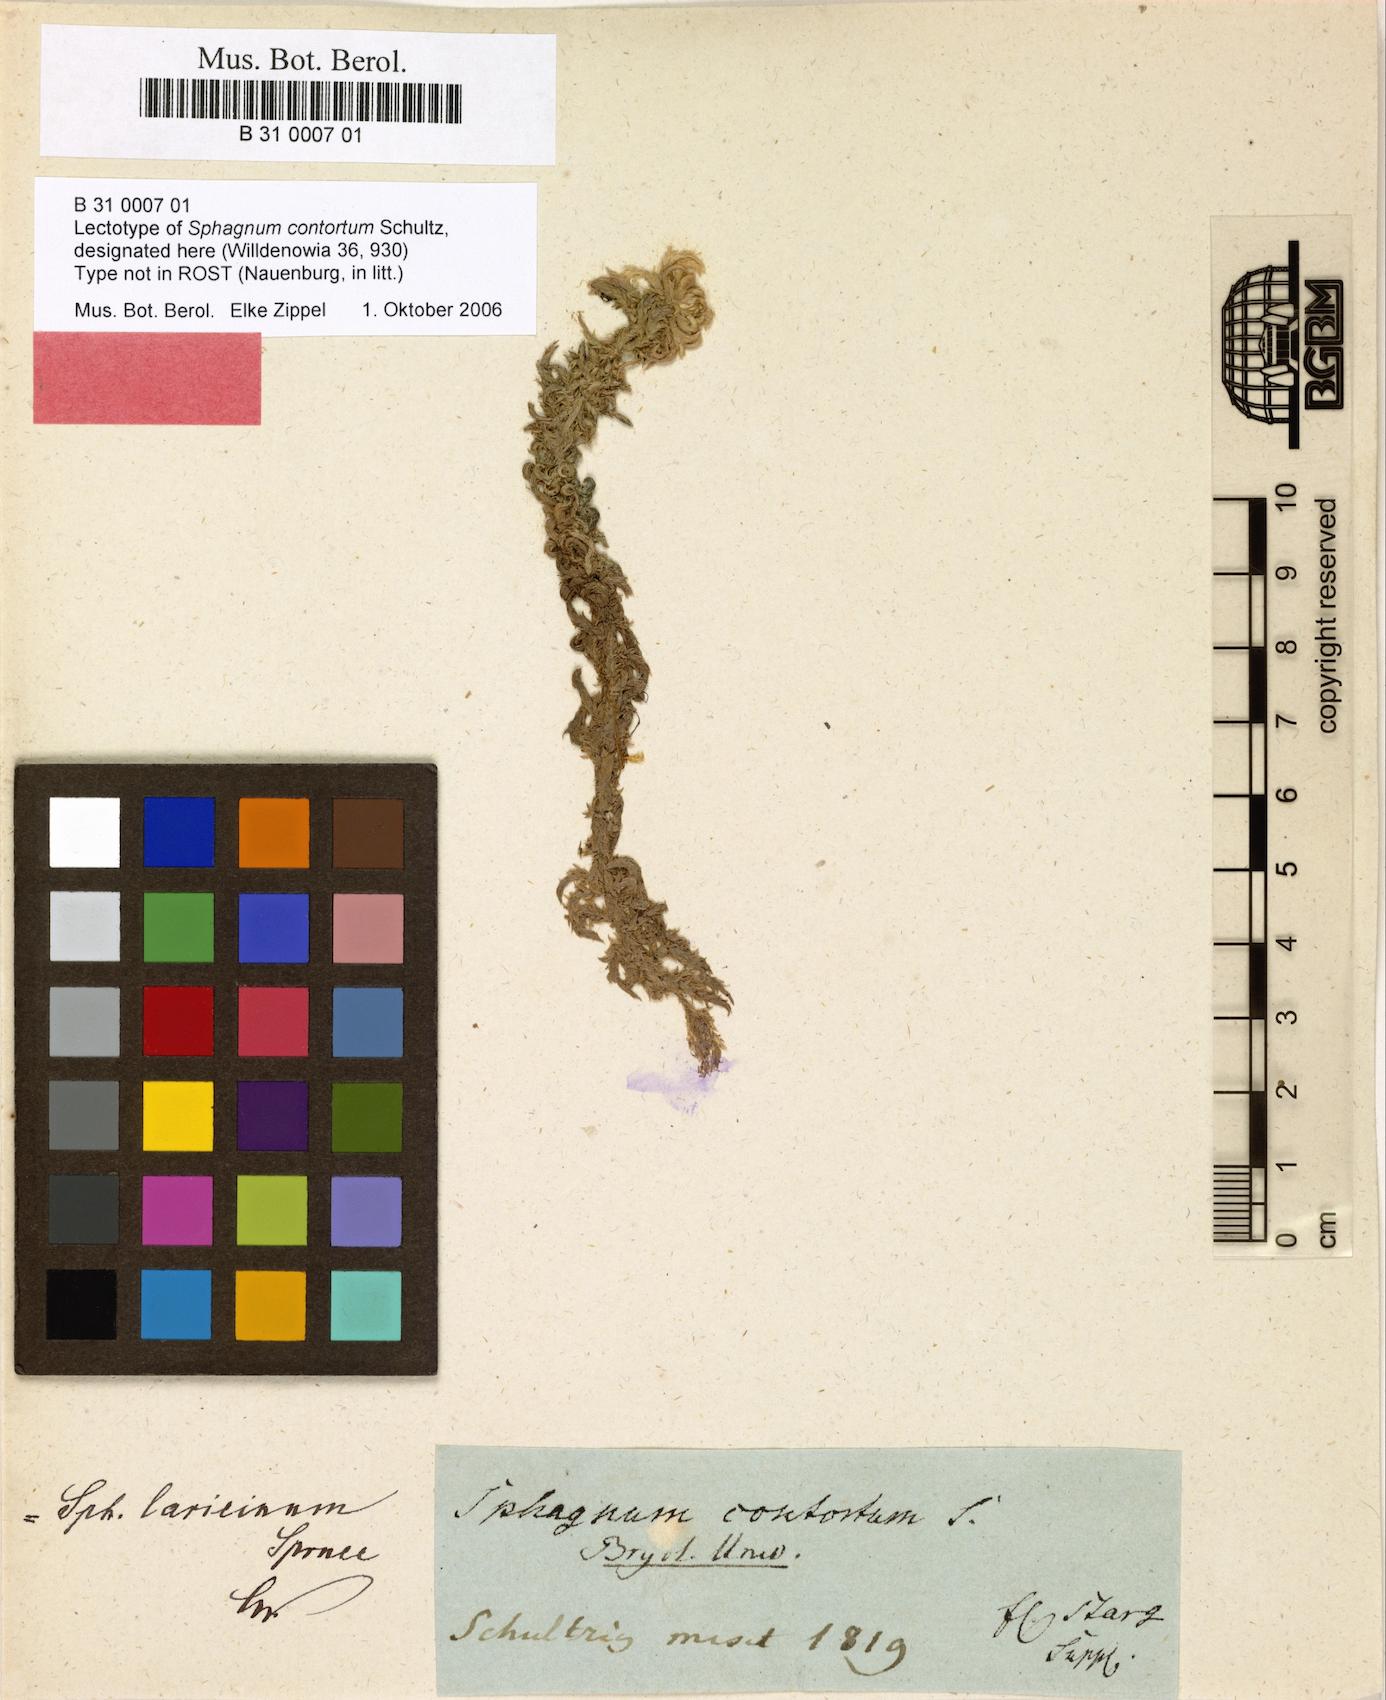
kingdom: Plantae
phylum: Bryophyta
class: Sphagnopsida
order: Sphagnales
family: Sphagnaceae
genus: Sphagnum
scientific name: Sphagnum contortum
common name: Twisted peat moss
